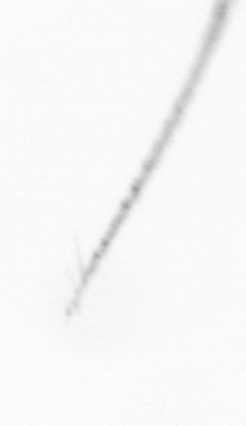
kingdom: Chromista
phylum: Ochrophyta
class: Bacillariophyceae
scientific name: Bacillariophyceae
